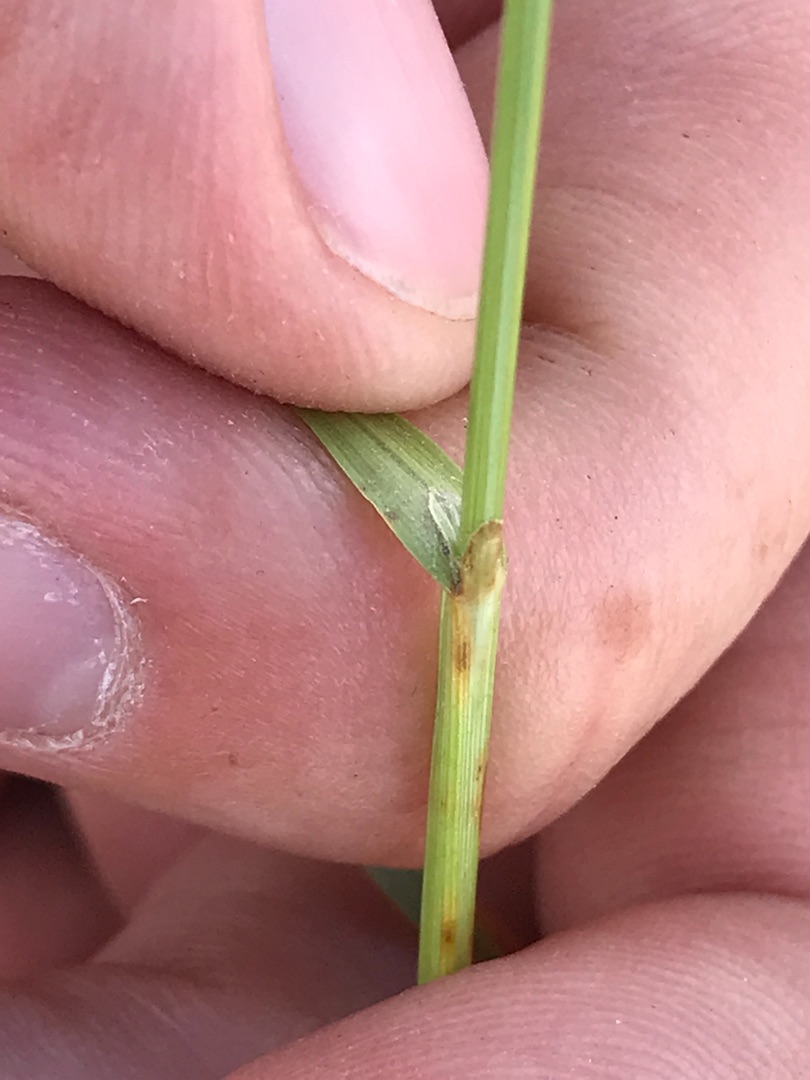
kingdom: Plantae
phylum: Tracheophyta
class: Liliopsida
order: Poales
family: Cyperaceae
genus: Carex
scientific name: Carex distans
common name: Fjernakset star
